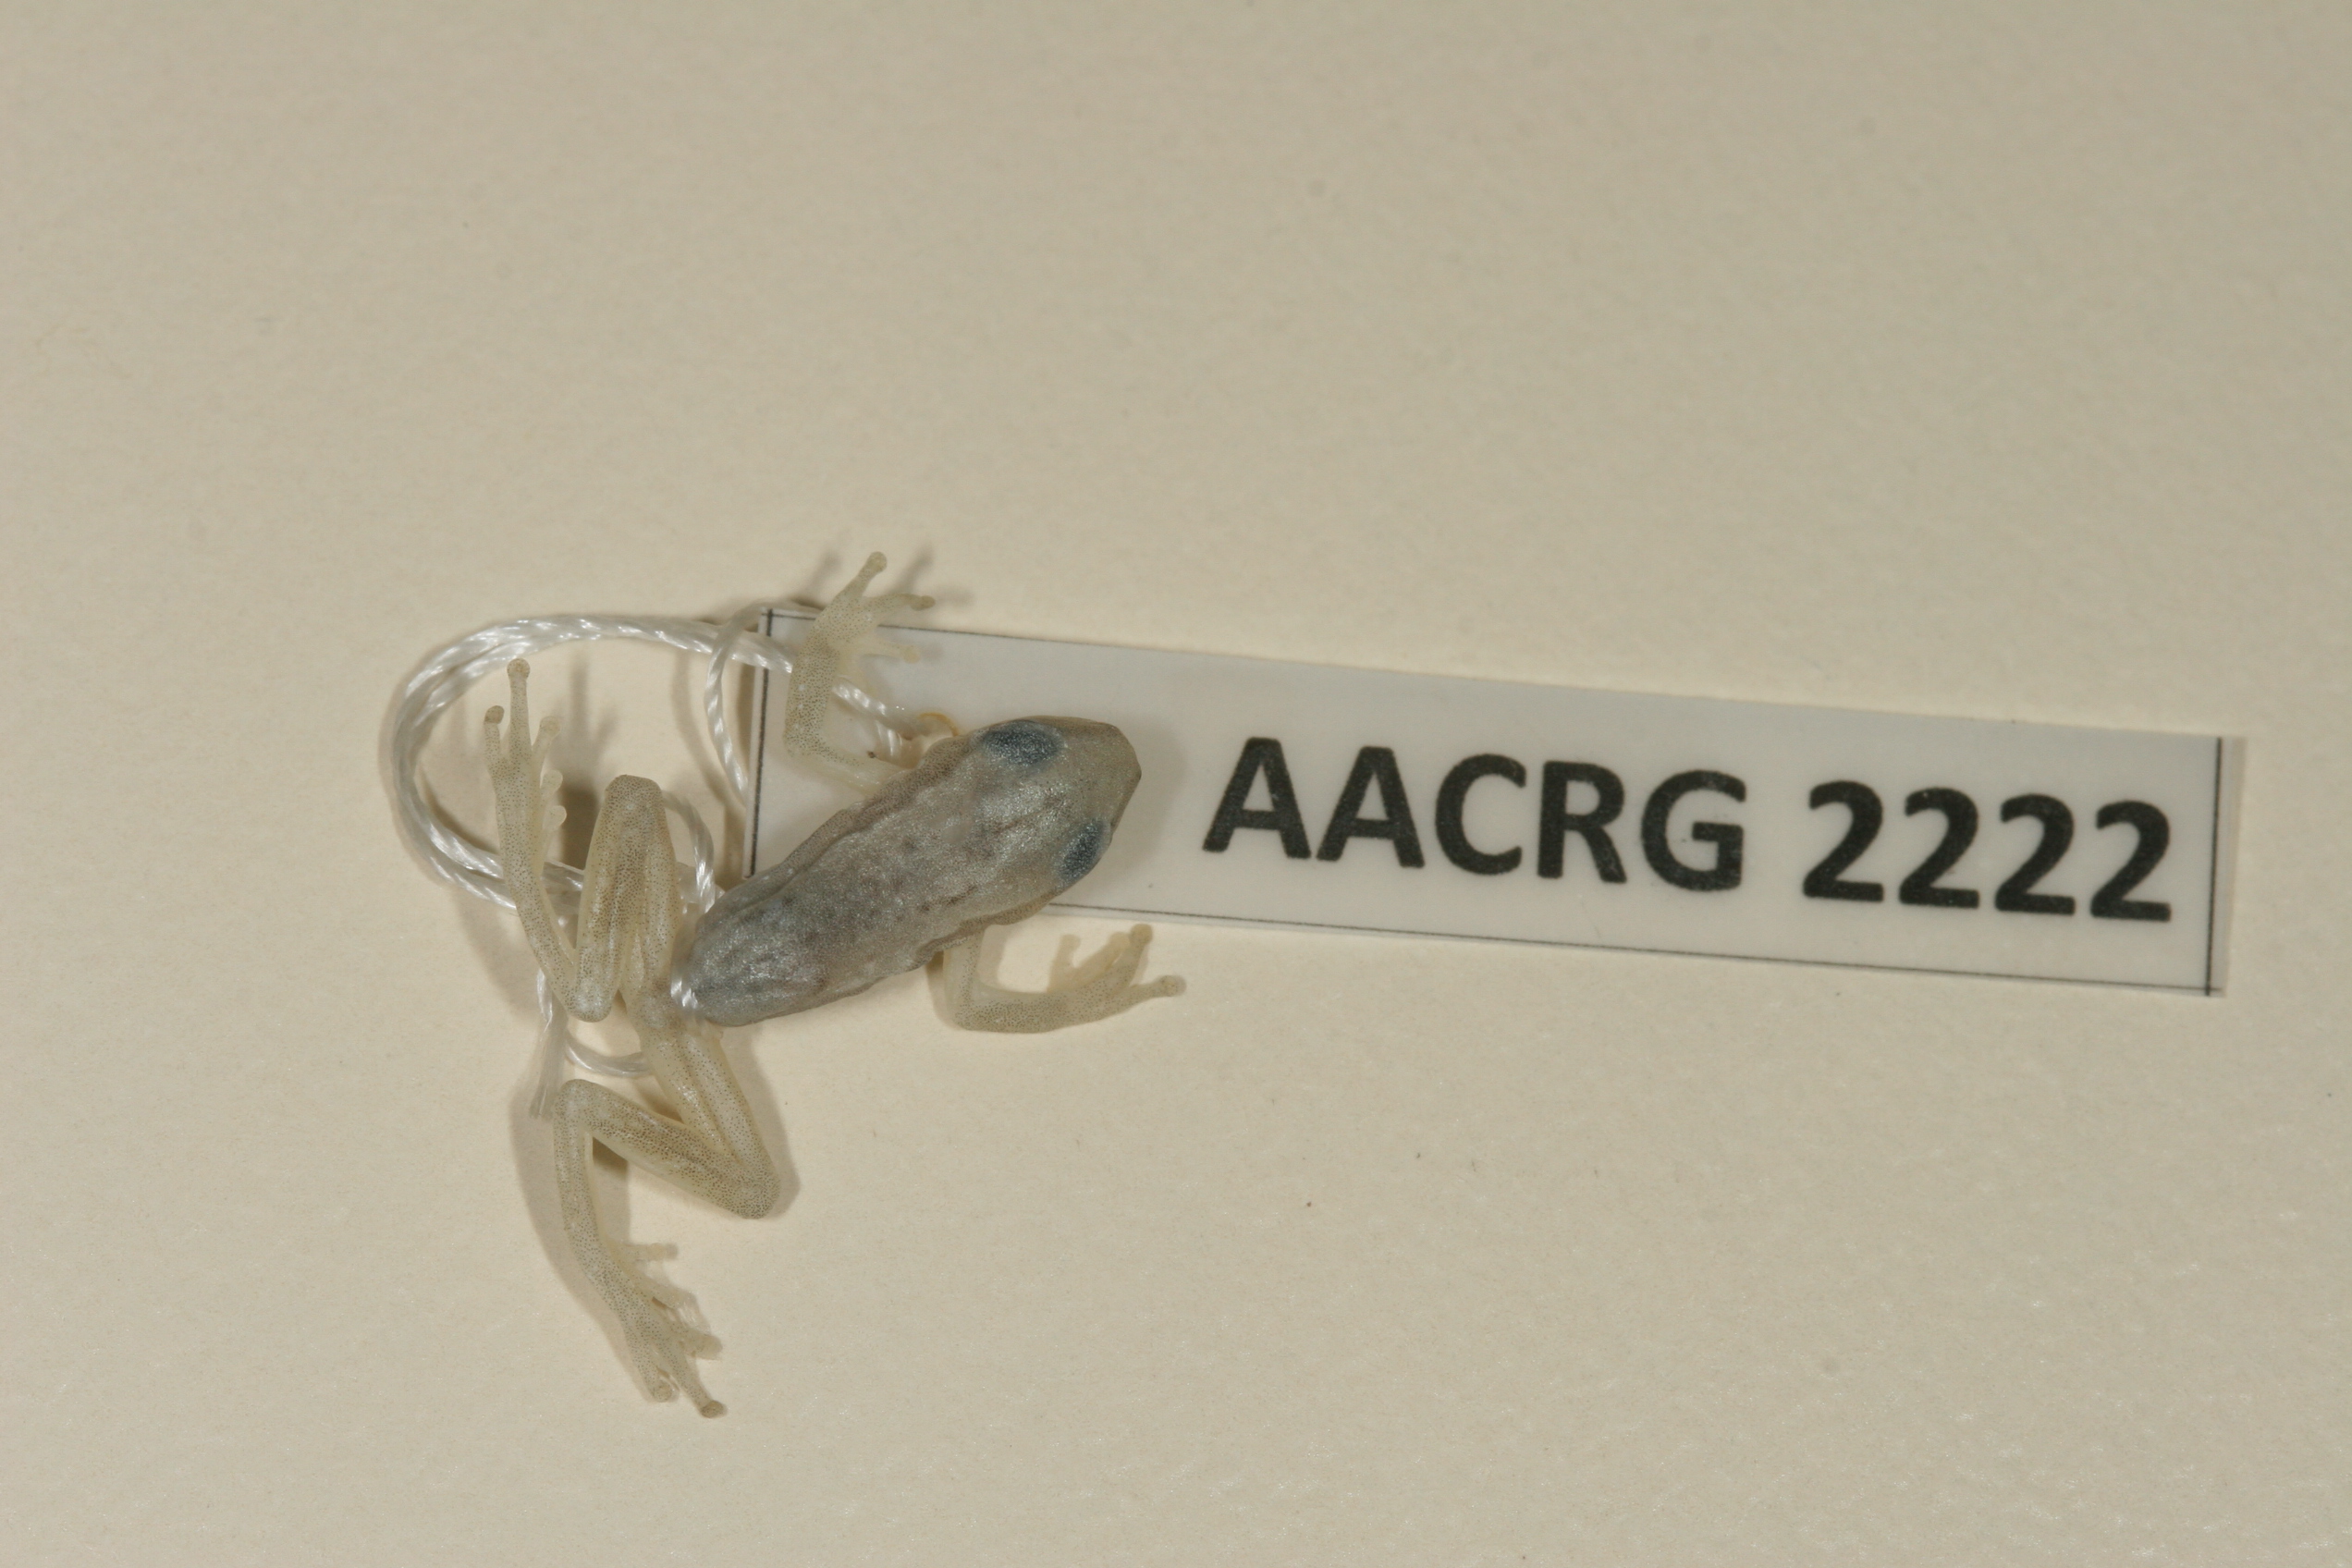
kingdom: Animalia
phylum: Chordata
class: Amphibia
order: Anura
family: Hyperoliidae
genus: Afrixalus
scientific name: Afrixalus aureus
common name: Golden banana frog
